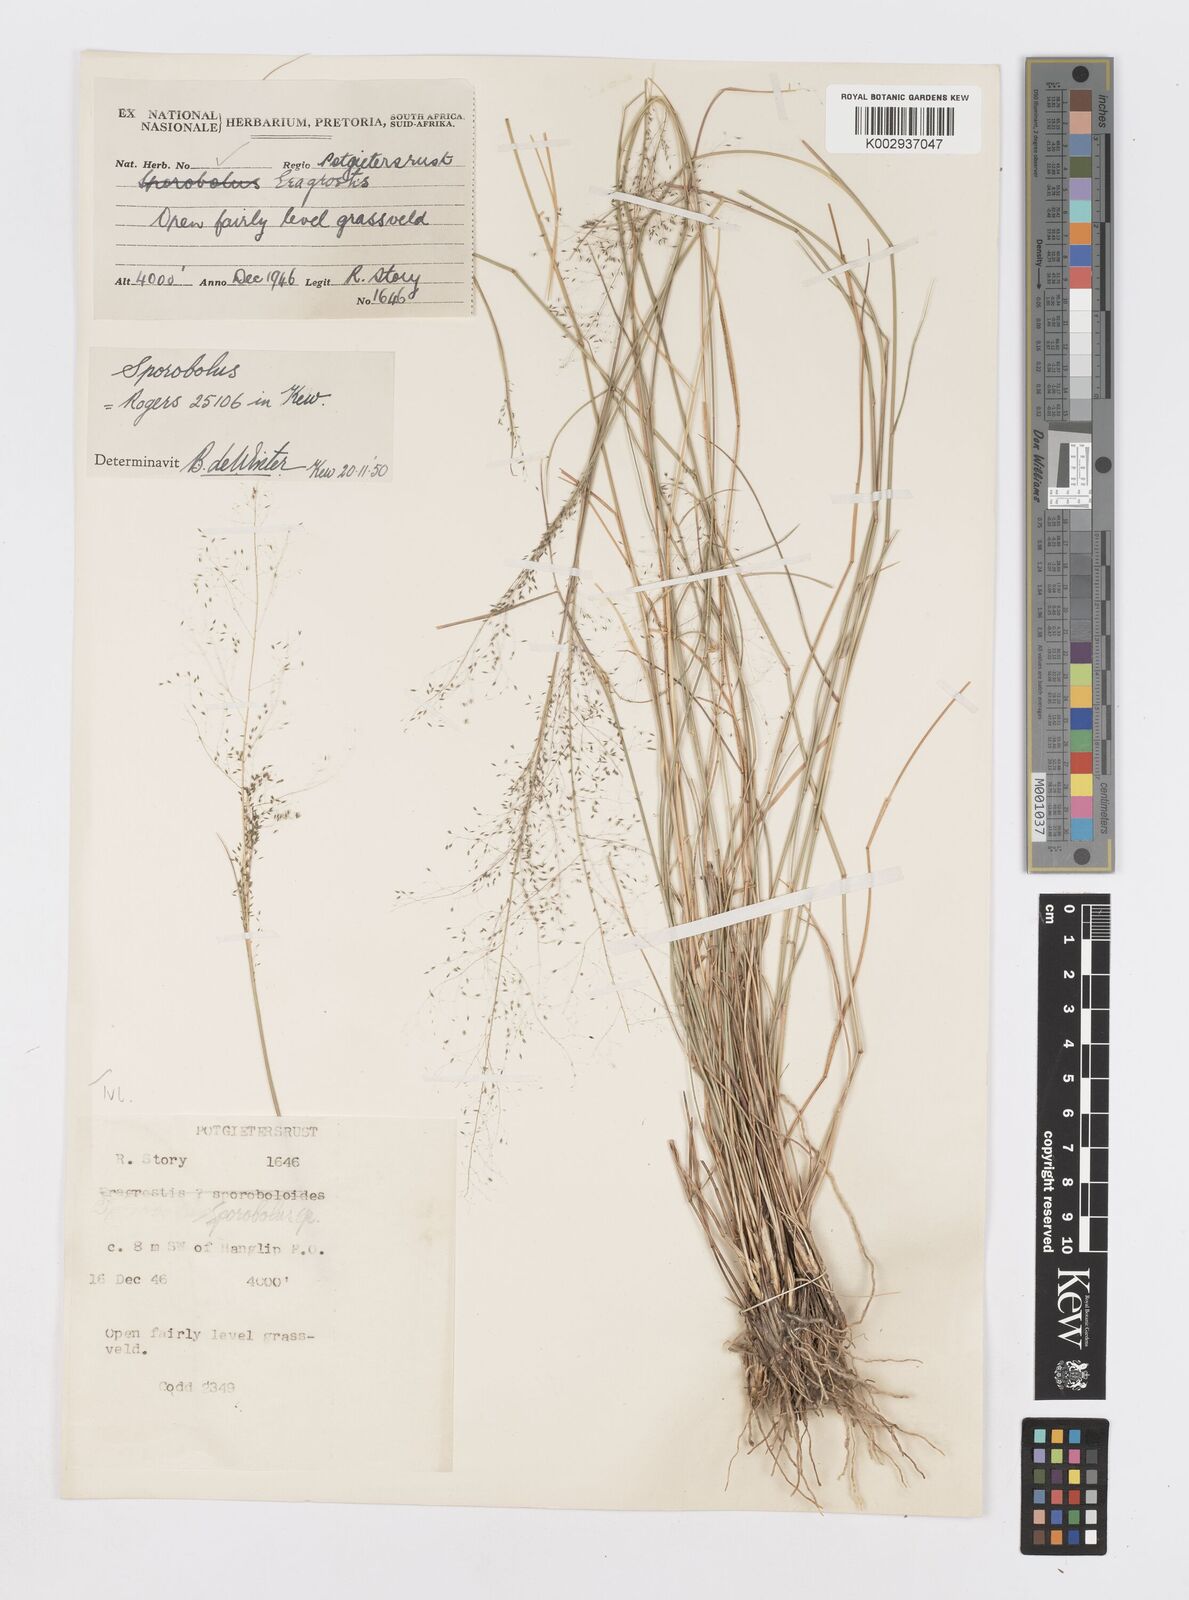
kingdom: Plantae
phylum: Tracheophyta
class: Liliopsida
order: Poales
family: Poaceae
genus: Sporobolus
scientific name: Sporobolus
